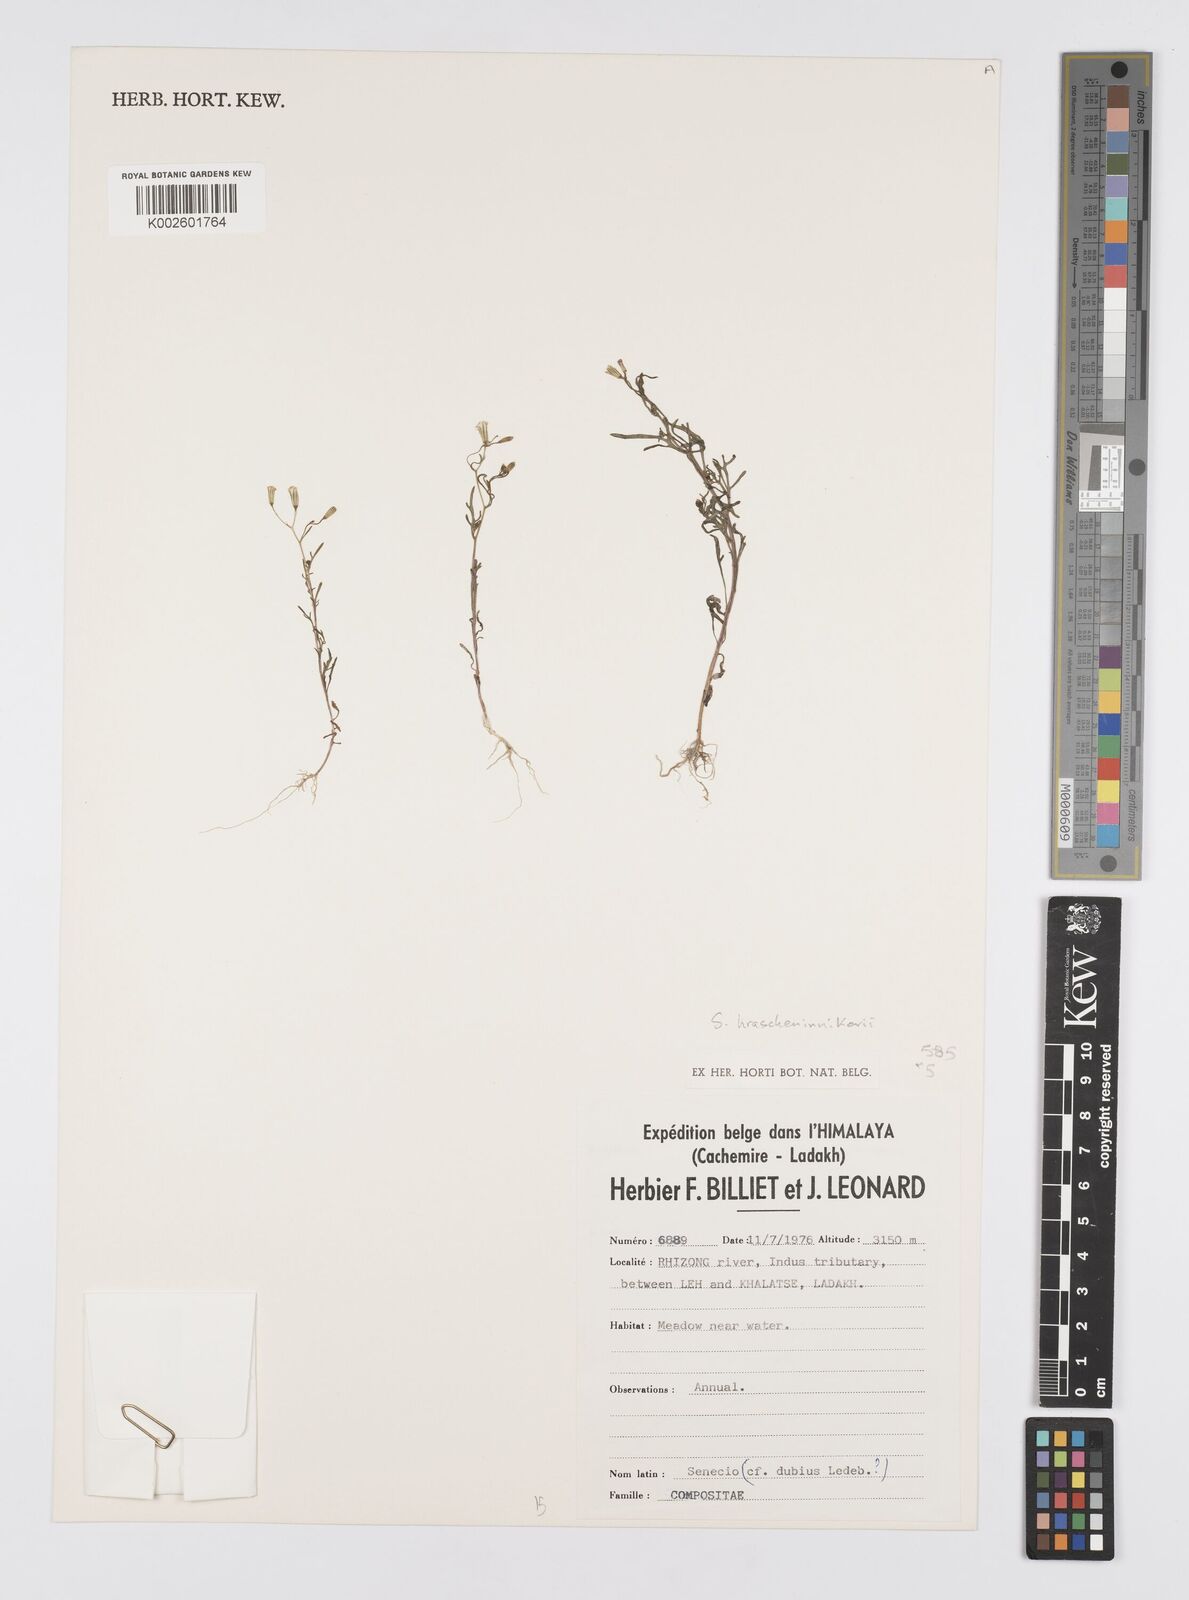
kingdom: Plantae
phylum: Tracheophyta
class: Magnoliopsida
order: Asterales
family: Asteraceae
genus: Senecio
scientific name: Senecio dubitabilis
